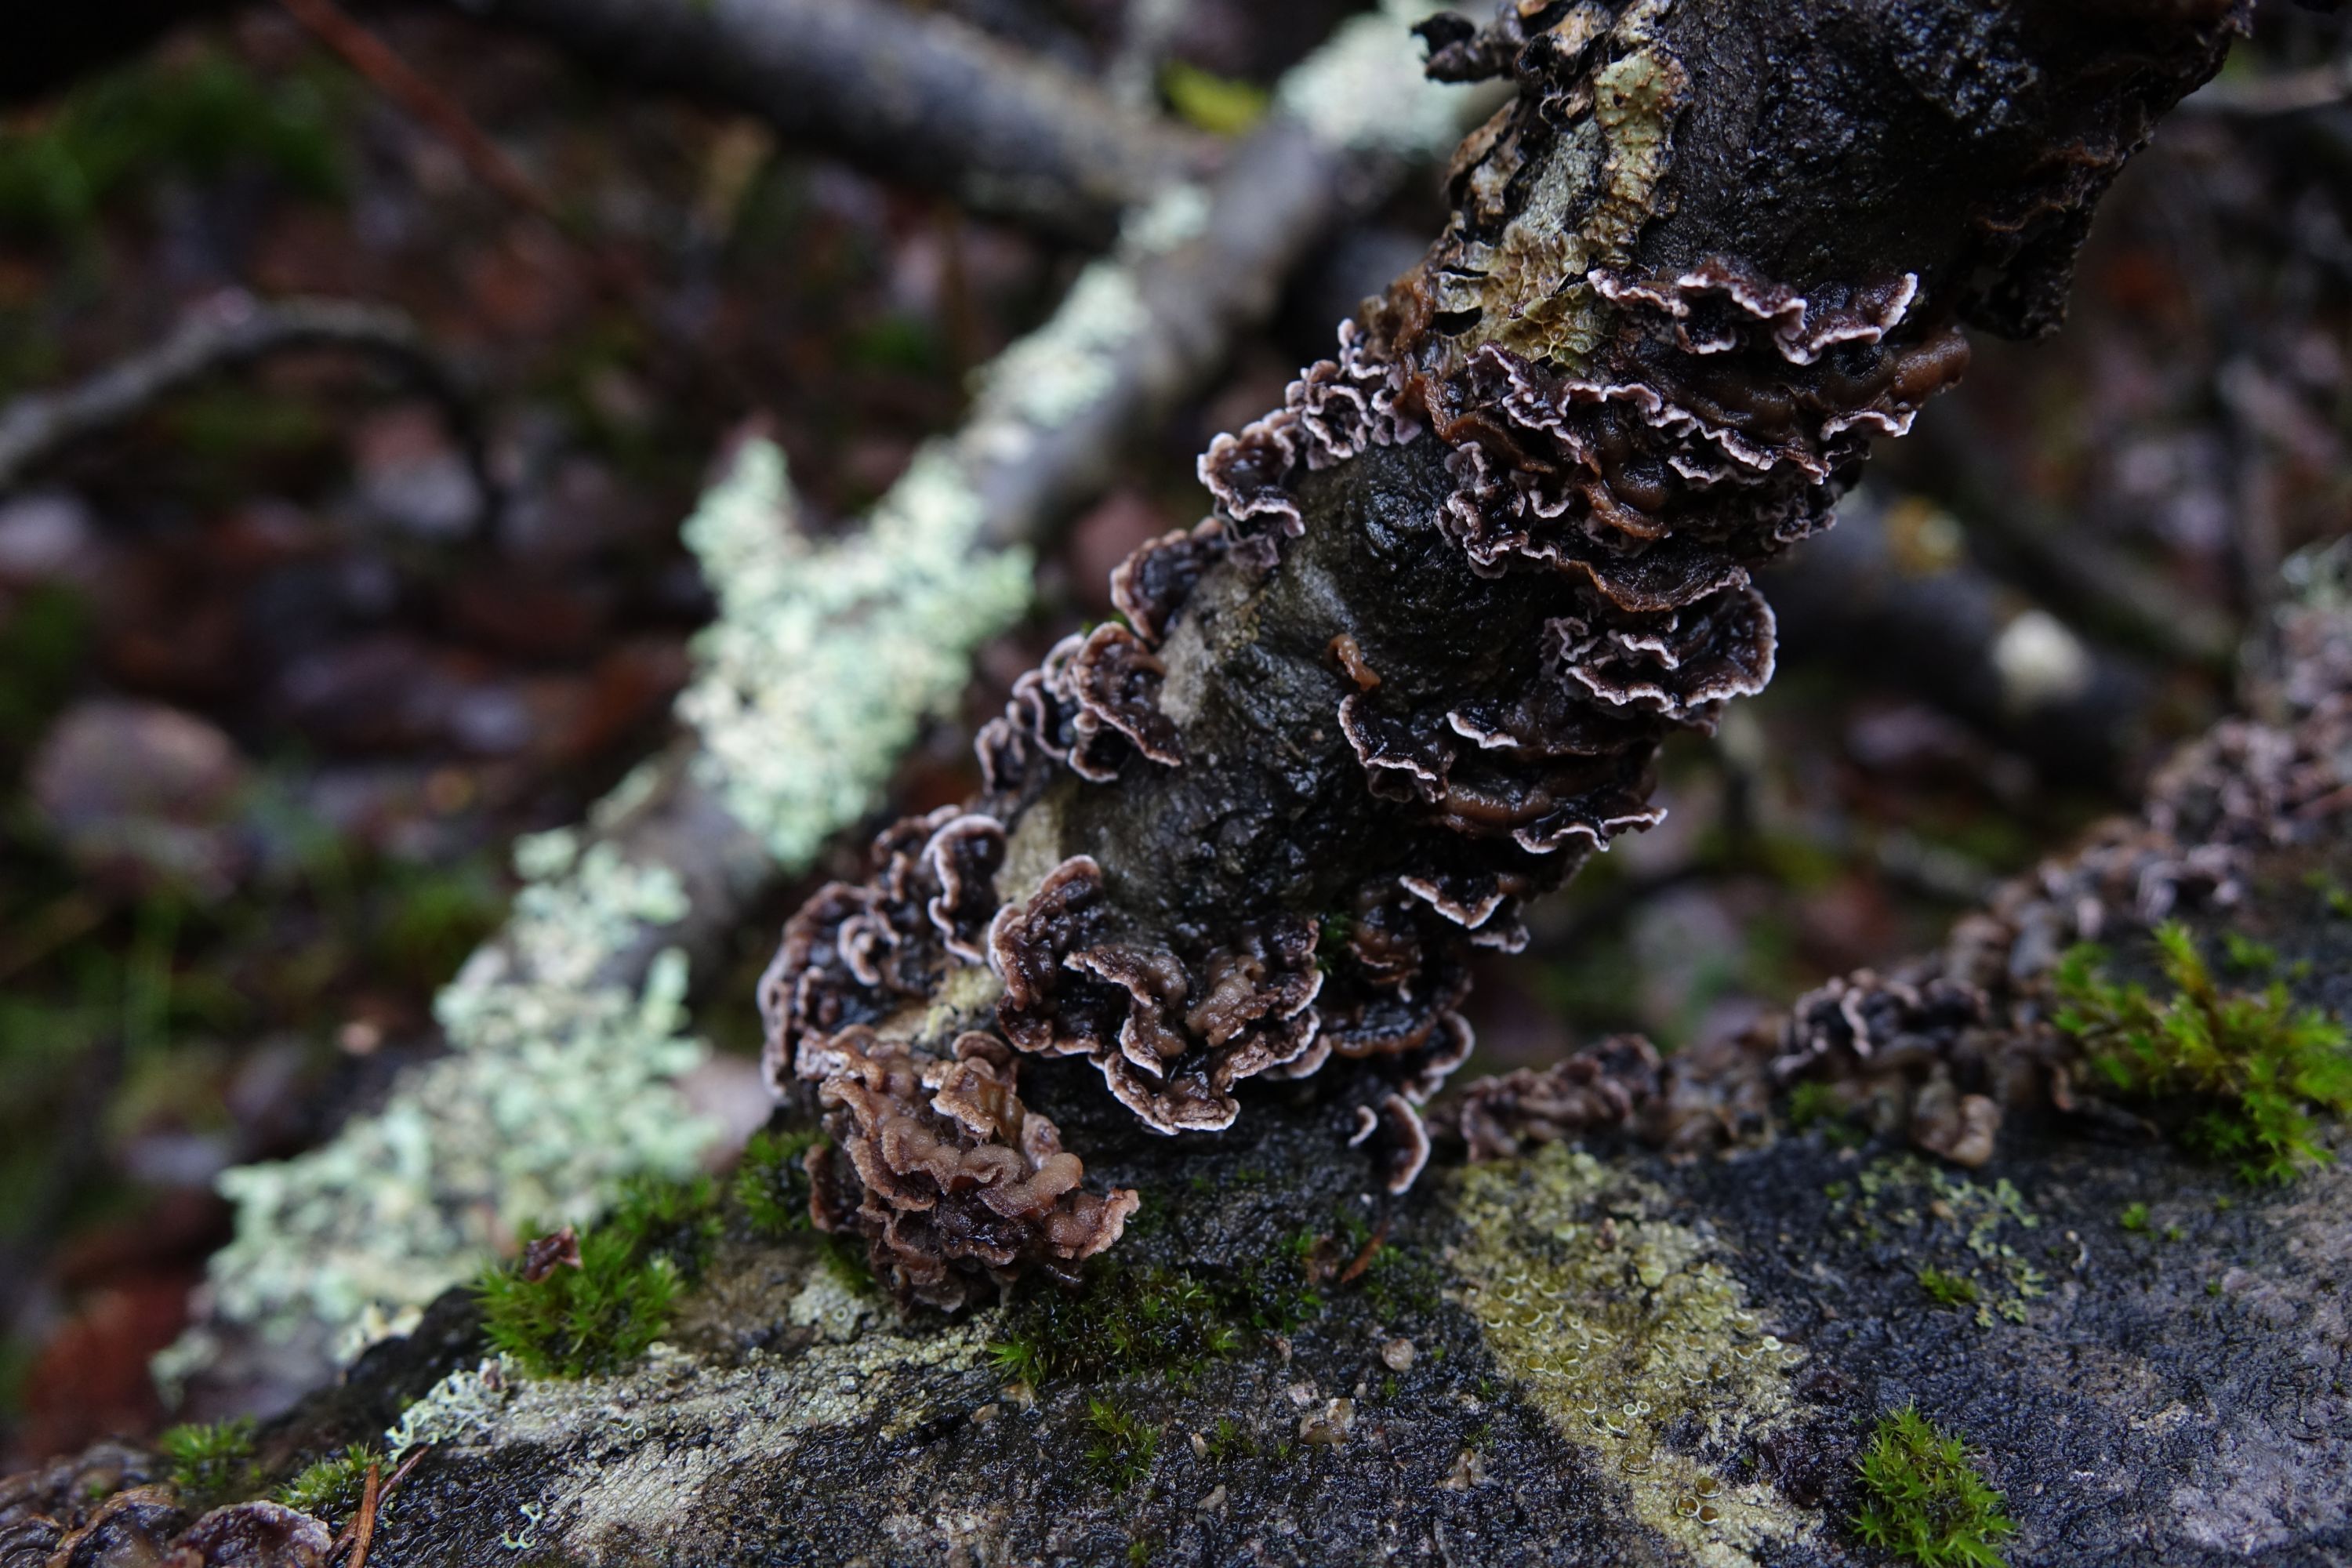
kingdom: Fungi
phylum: Basidiomycota
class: Agaricomycetes
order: Agaricales
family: Cyphellaceae
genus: Chondrostereum
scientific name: Chondrostereum purpureum
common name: Silver leaf disease
